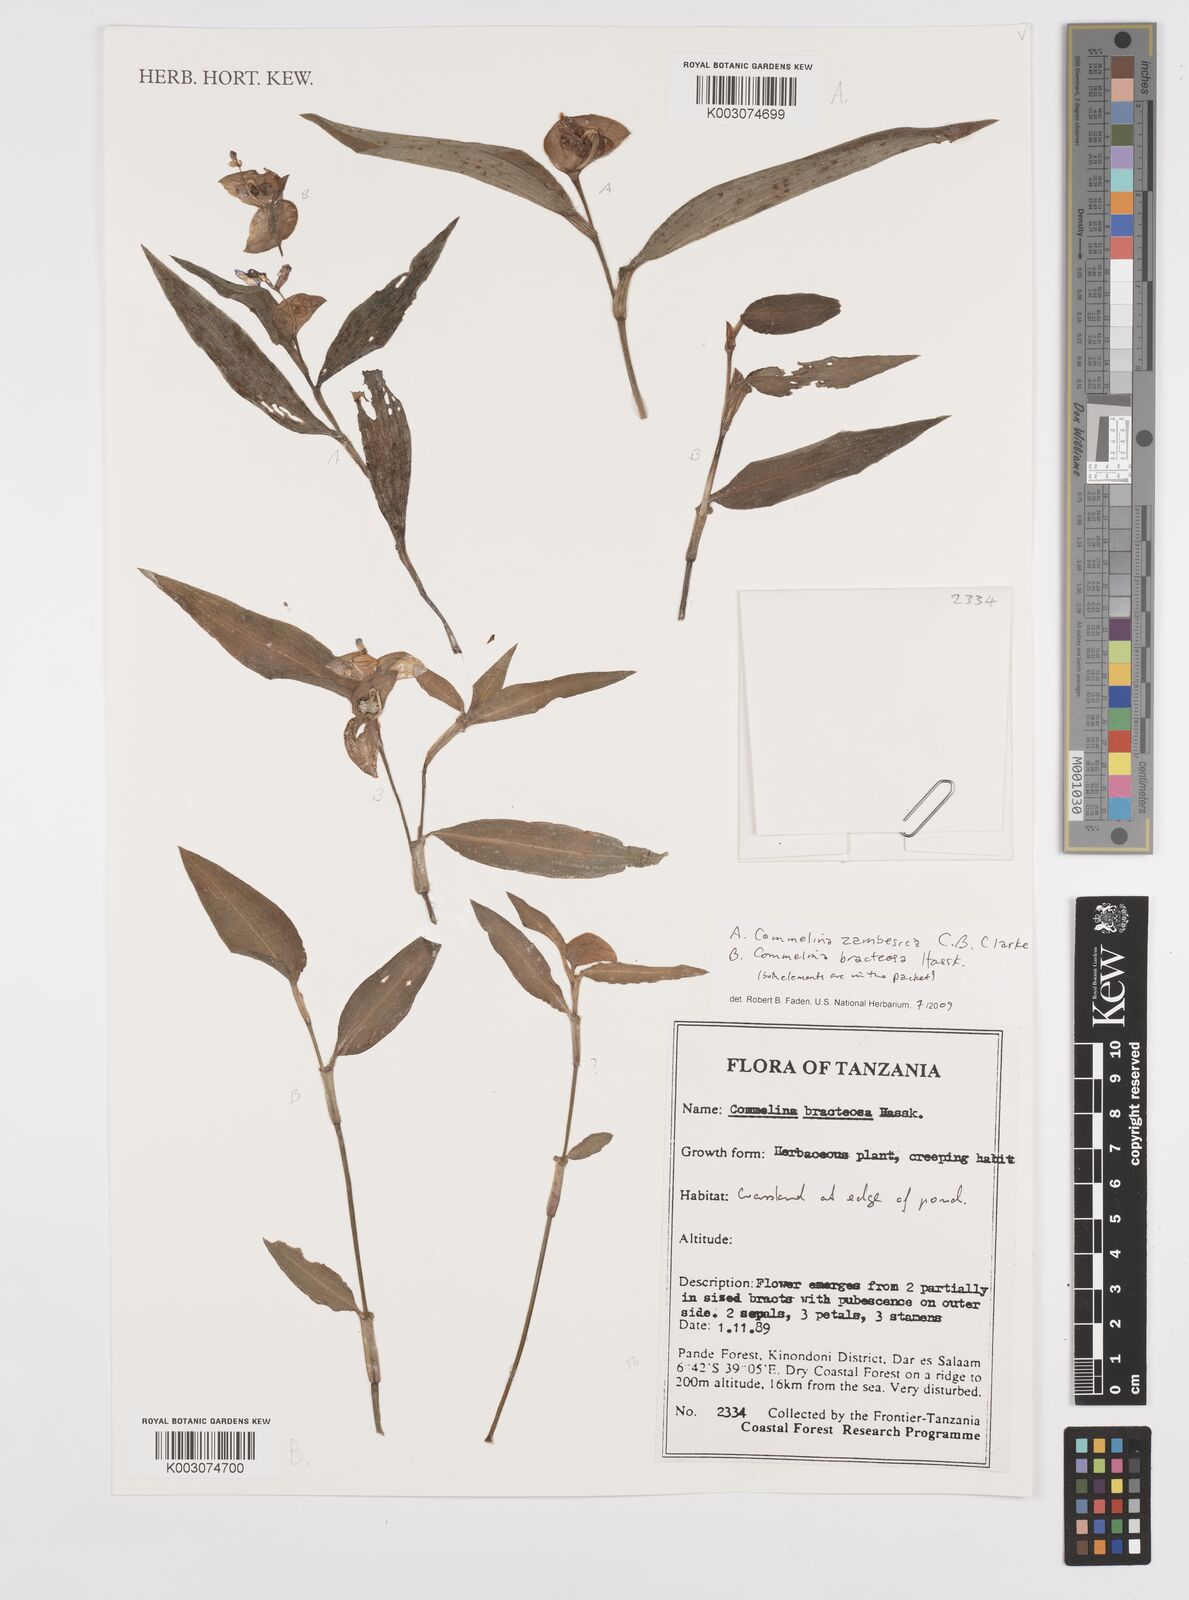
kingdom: Plantae
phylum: Tracheophyta
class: Liliopsida
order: Commelinales
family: Commelinaceae
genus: Commelina
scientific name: Commelina bracteosa
